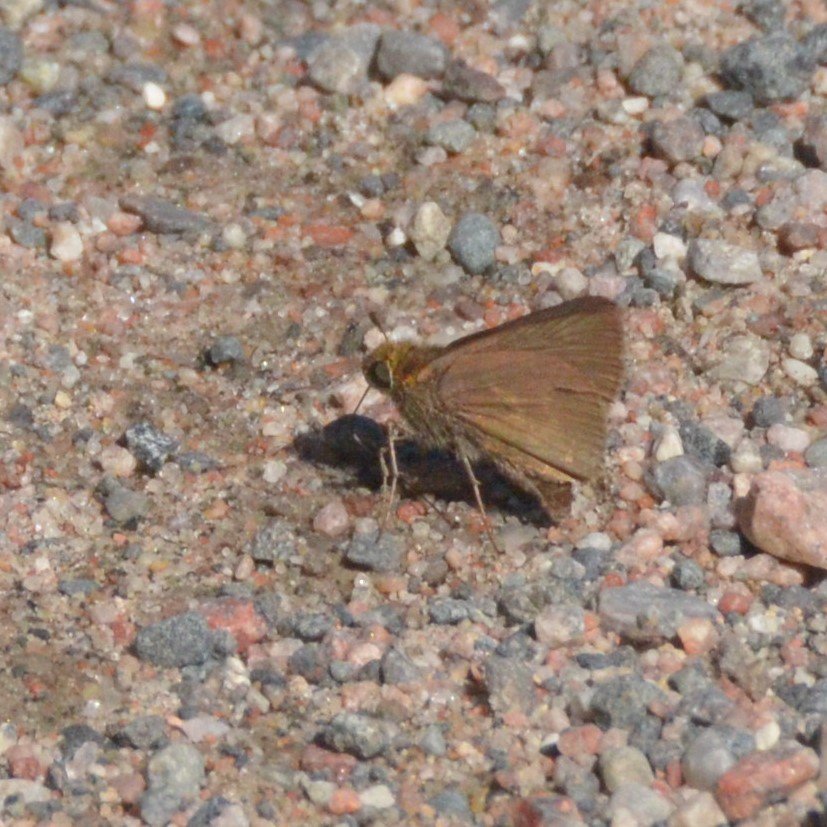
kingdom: Animalia
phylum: Arthropoda
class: Insecta
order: Lepidoptera
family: Hesperiidae
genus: Euphyes
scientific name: Euphyes vestris
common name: Dun Skipper
